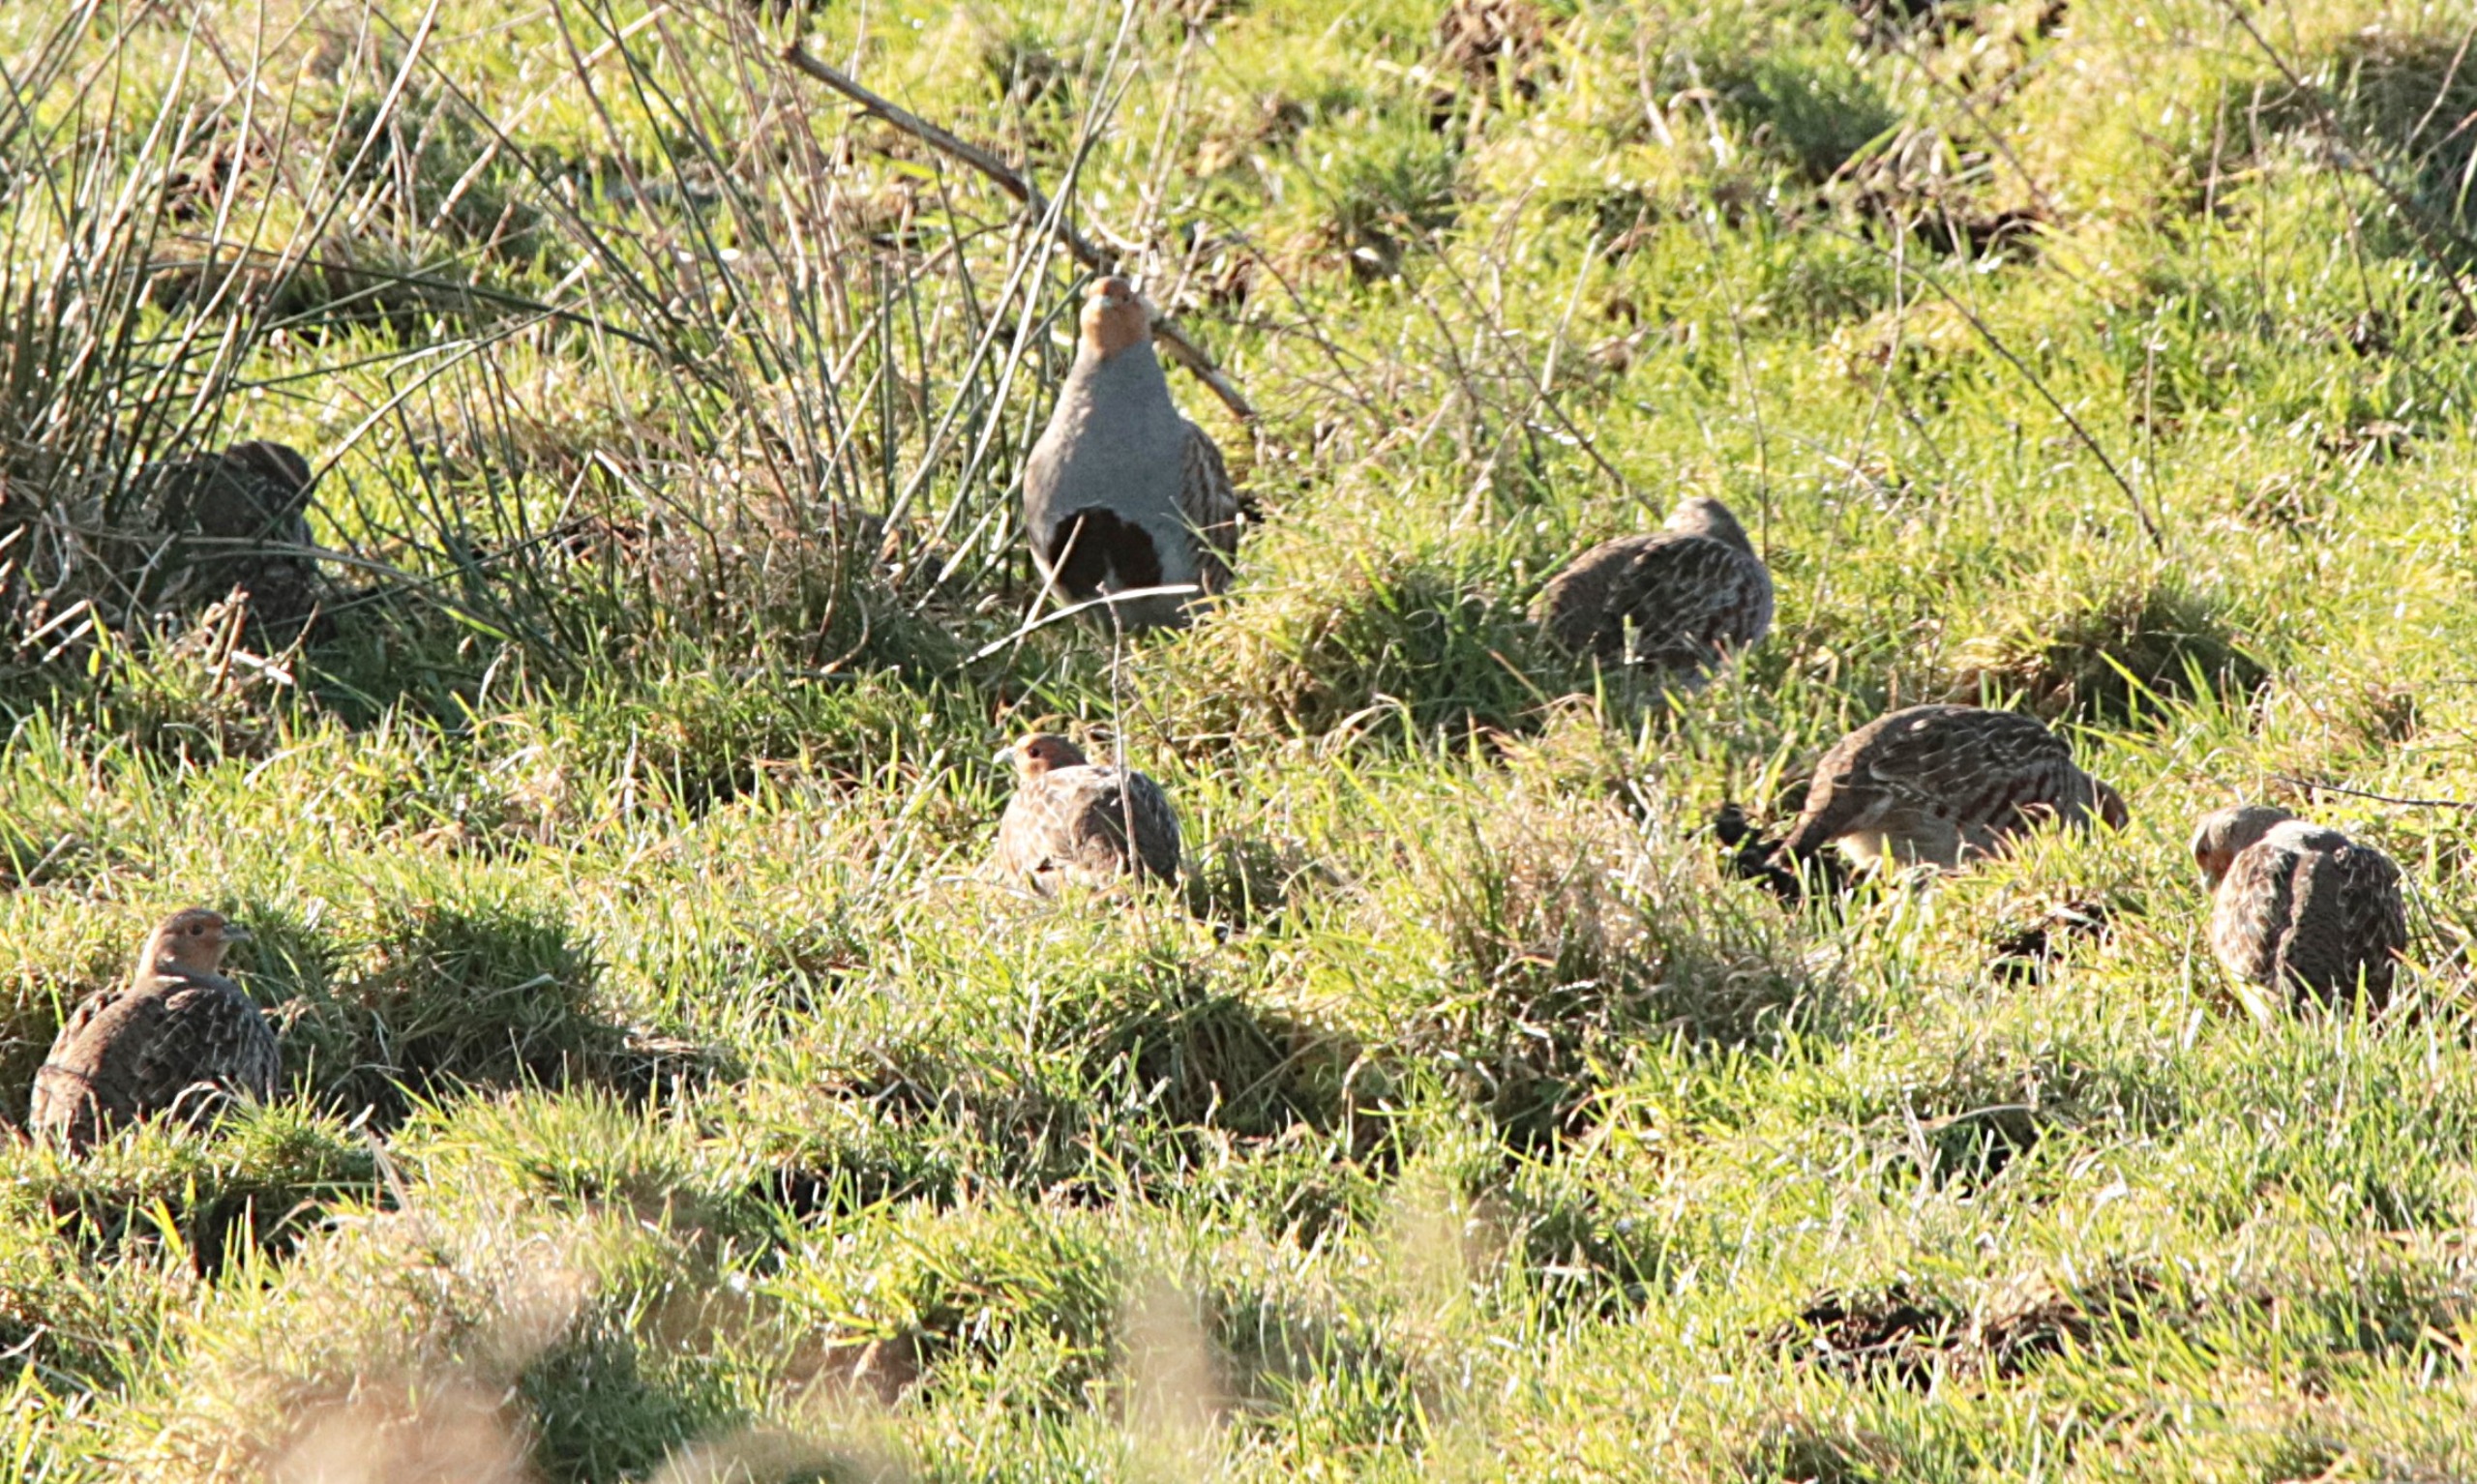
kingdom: Animalia
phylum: Chordata
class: Aves
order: Galliformes
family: Phasianidae
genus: Perdix
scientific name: Perdix perdix
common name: Agerhøne
